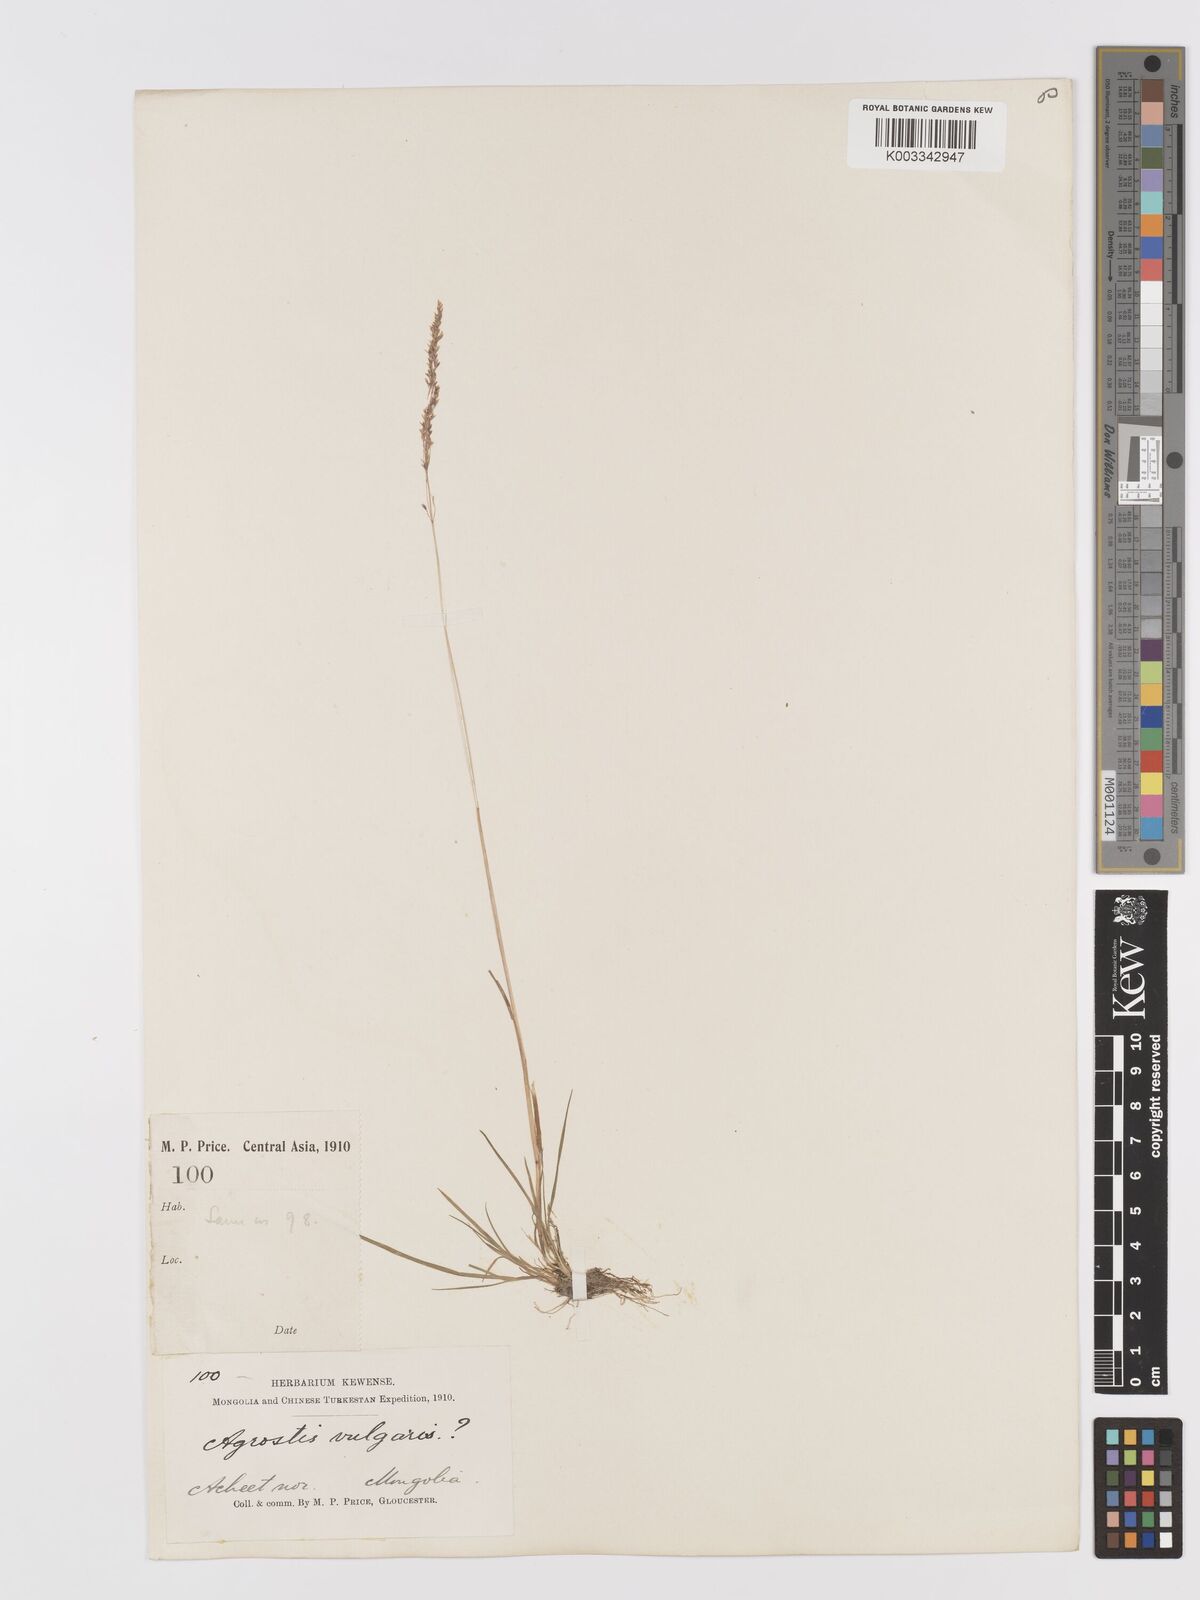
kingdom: Plantae
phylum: Tracheophyta
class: Liliopsida
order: Poales
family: Poaceae
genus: Agrostis
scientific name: Agrostis capillaris
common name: Colonial bentgrass
